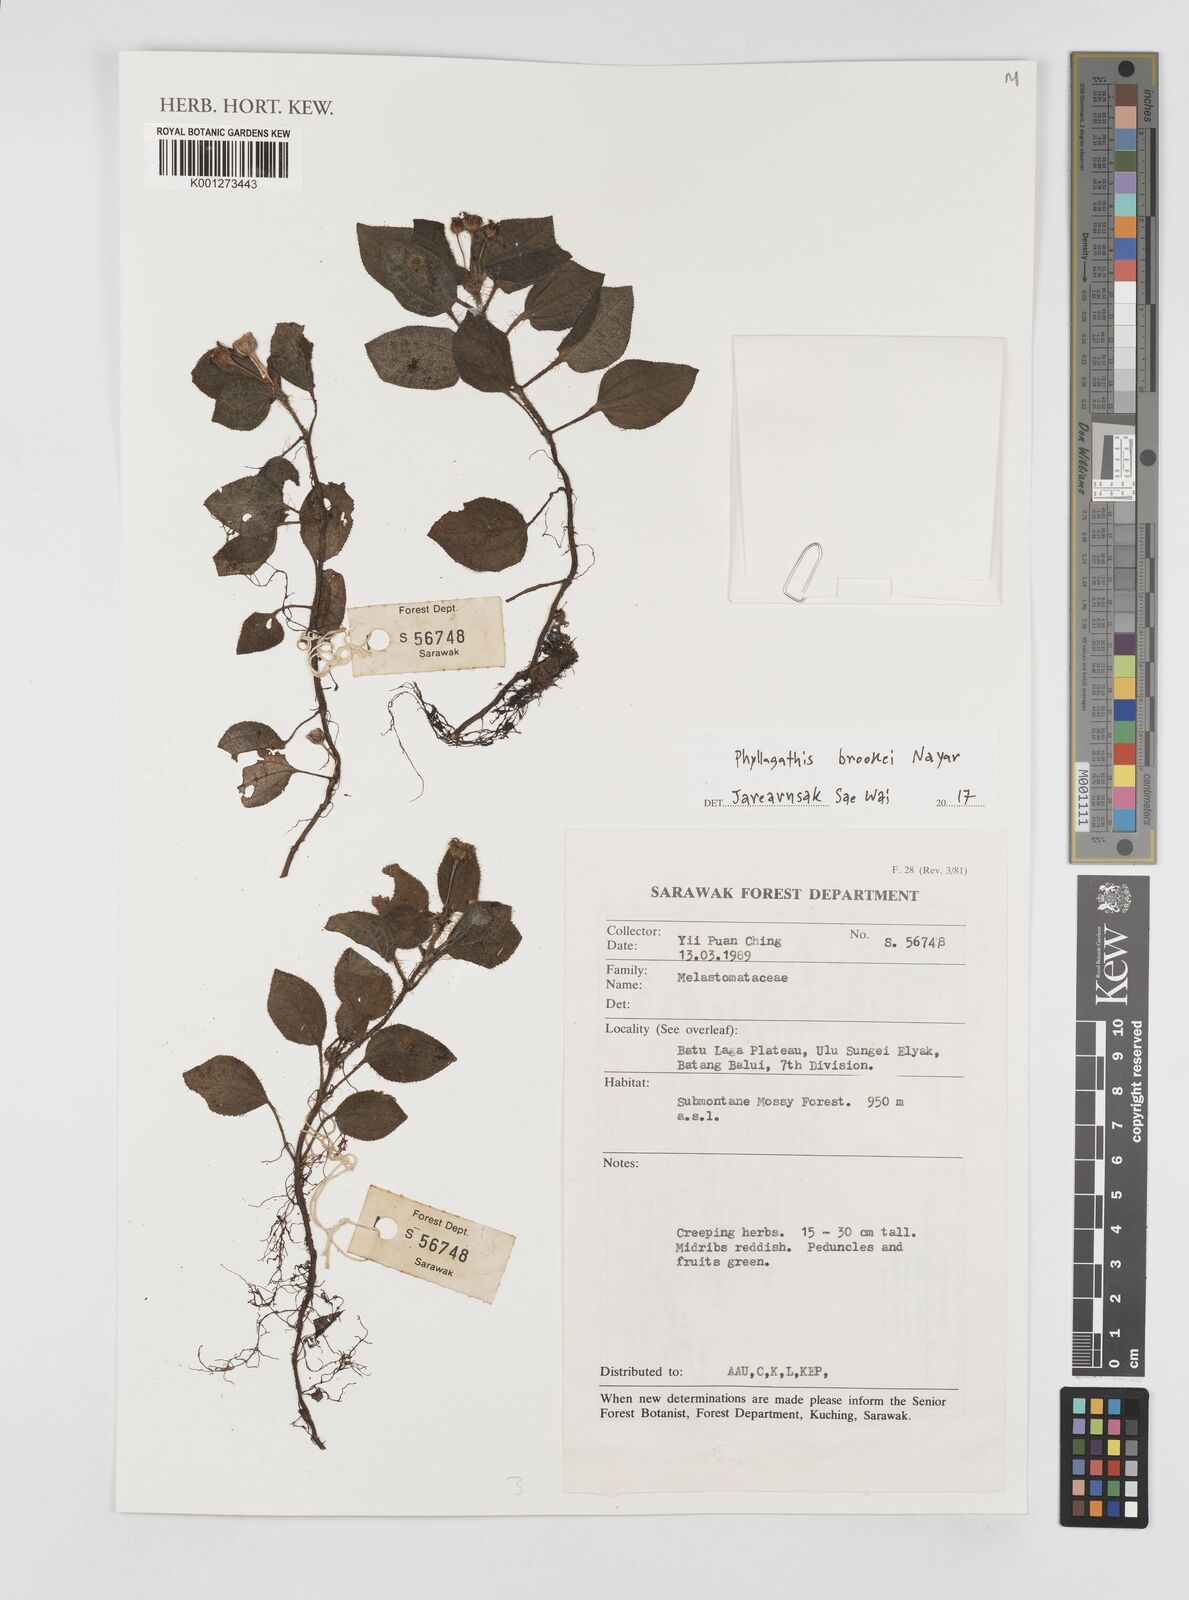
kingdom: Plantae
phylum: Tracheophyta
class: Magnoliopsida
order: Myrtales
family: Melastomataceae
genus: Phyllagathis
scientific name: Phyllagathis brookei
